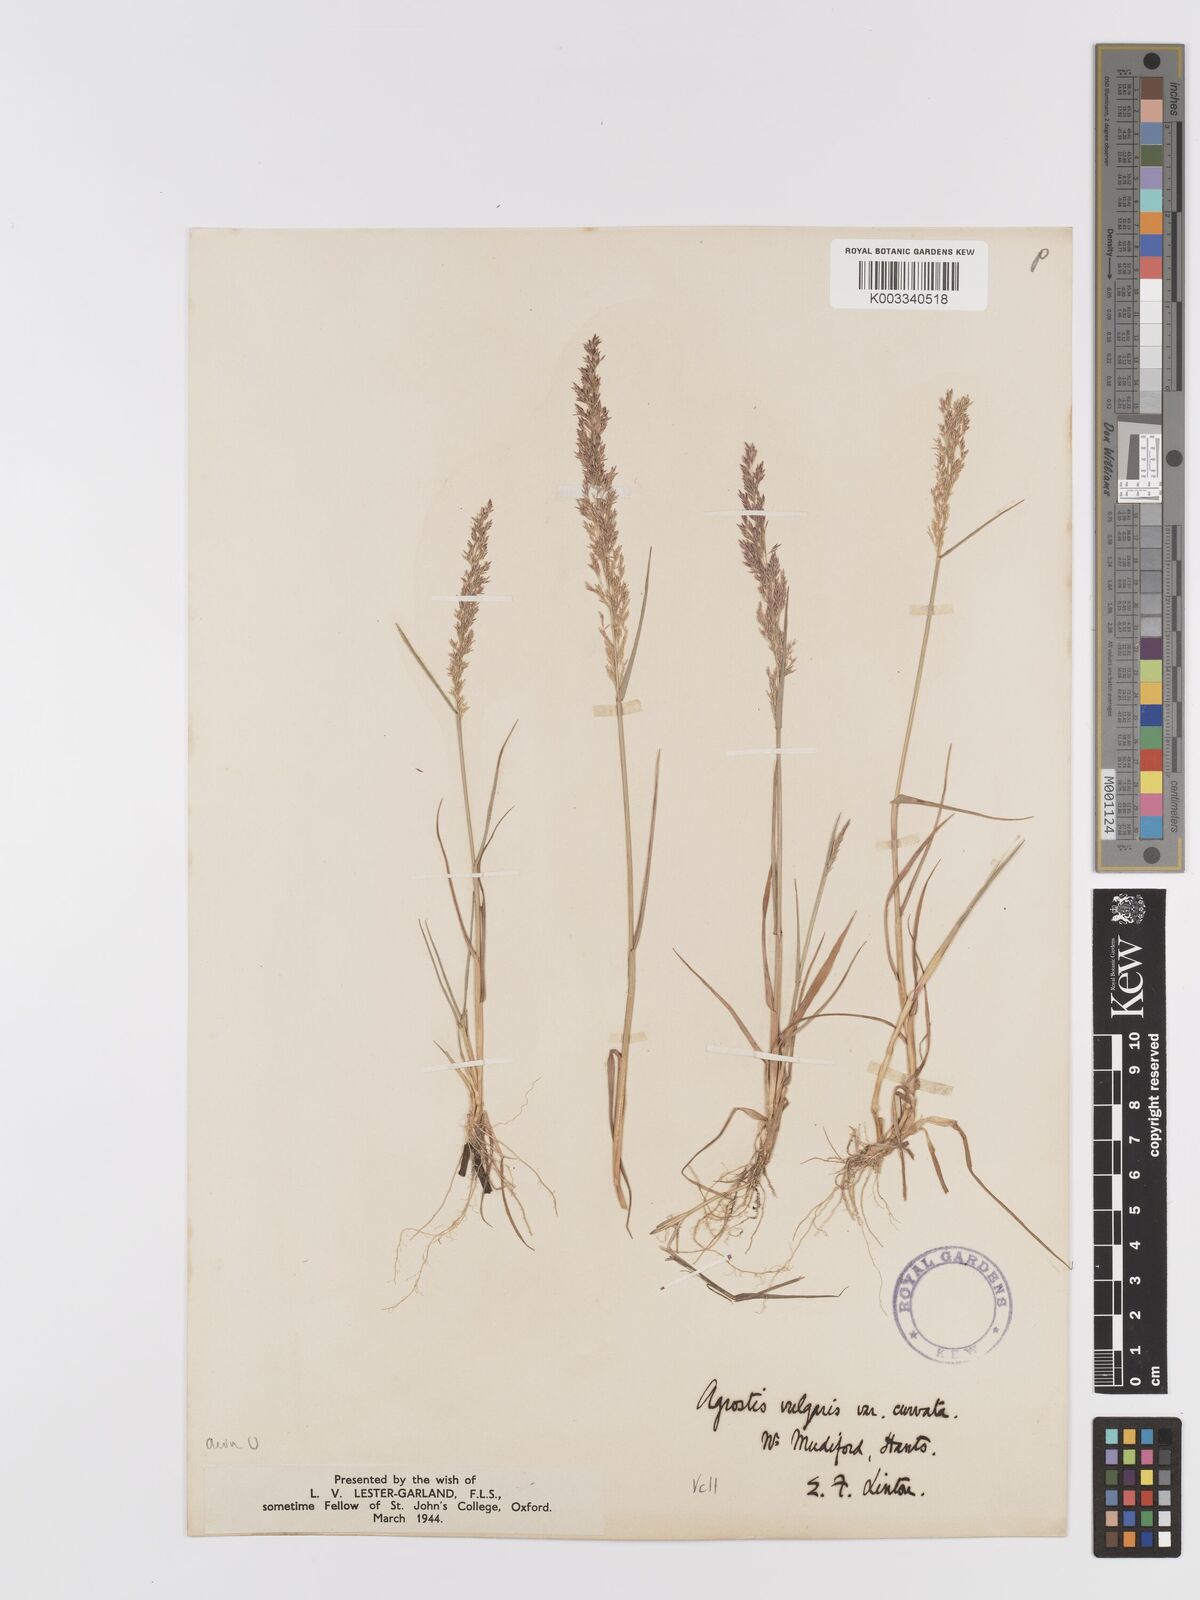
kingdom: Plantae
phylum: Tracheophyta
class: Liliopsida
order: Poales
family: Poaceae
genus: Agrostis
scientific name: Agrostis capillaris
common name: Colonial bentgrass
